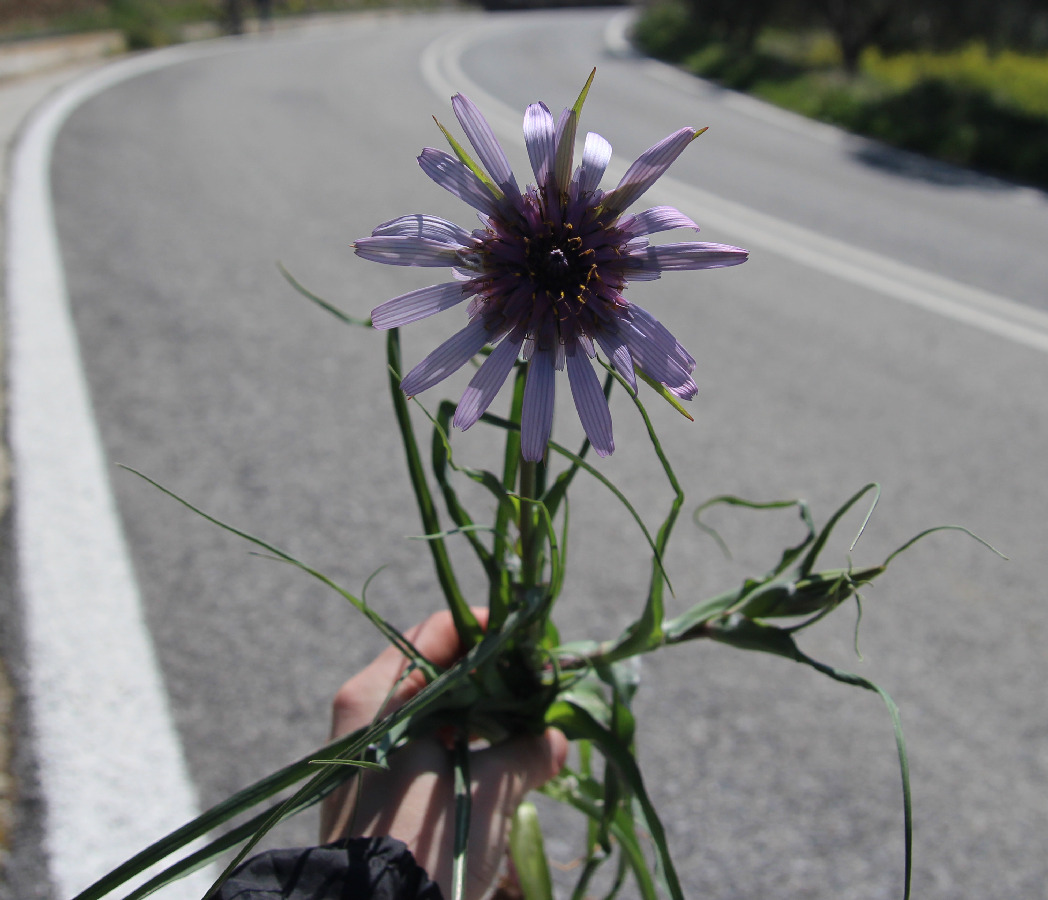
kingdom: Plantae
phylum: Tracheophyta
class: Magnoliopsida
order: Asterales
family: Asteraceae
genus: Tragopogon
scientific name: Tragopogon
